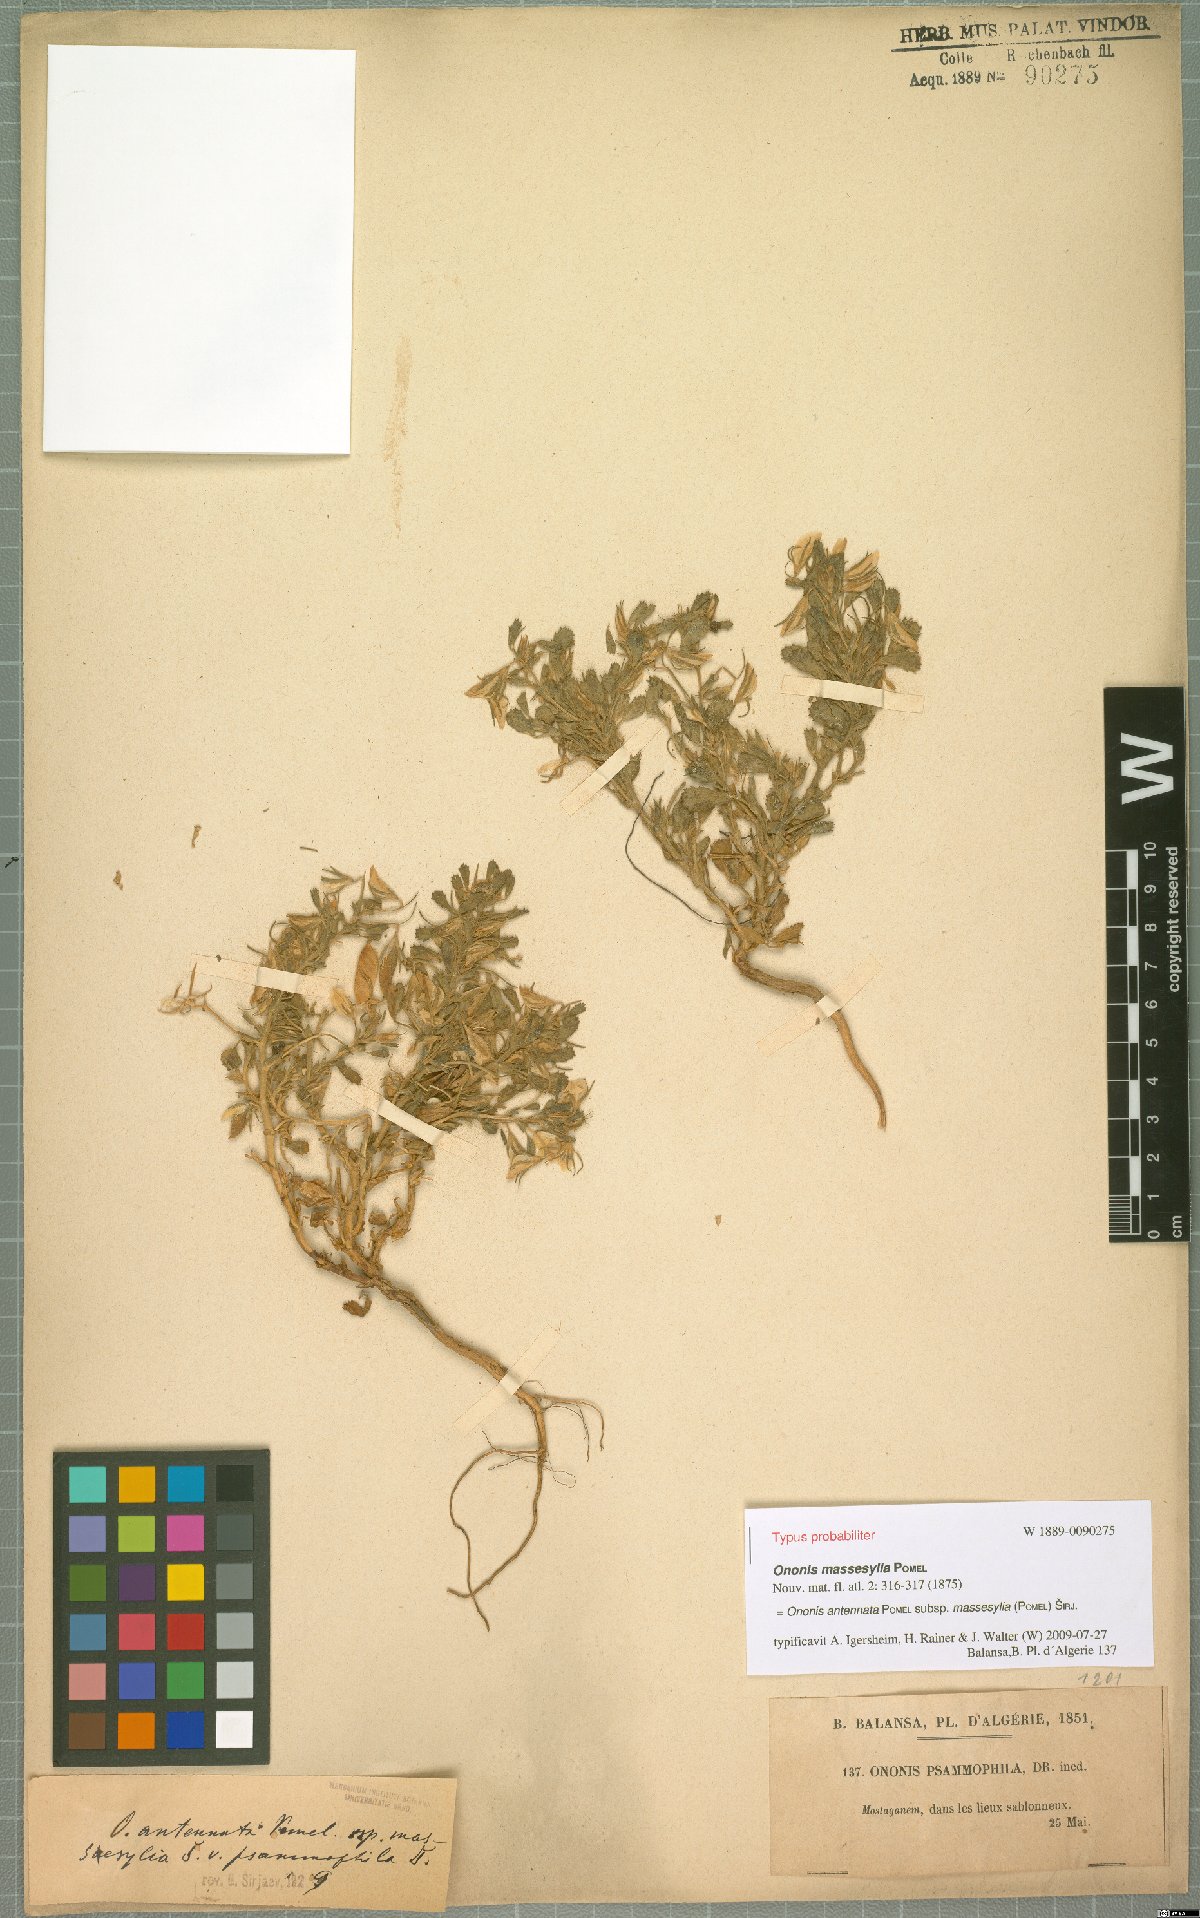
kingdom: Plantae
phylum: Tracheophyta
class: Magnoliopsida
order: Fabales
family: Fabaceae
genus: Ononis
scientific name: Ononis antennata
